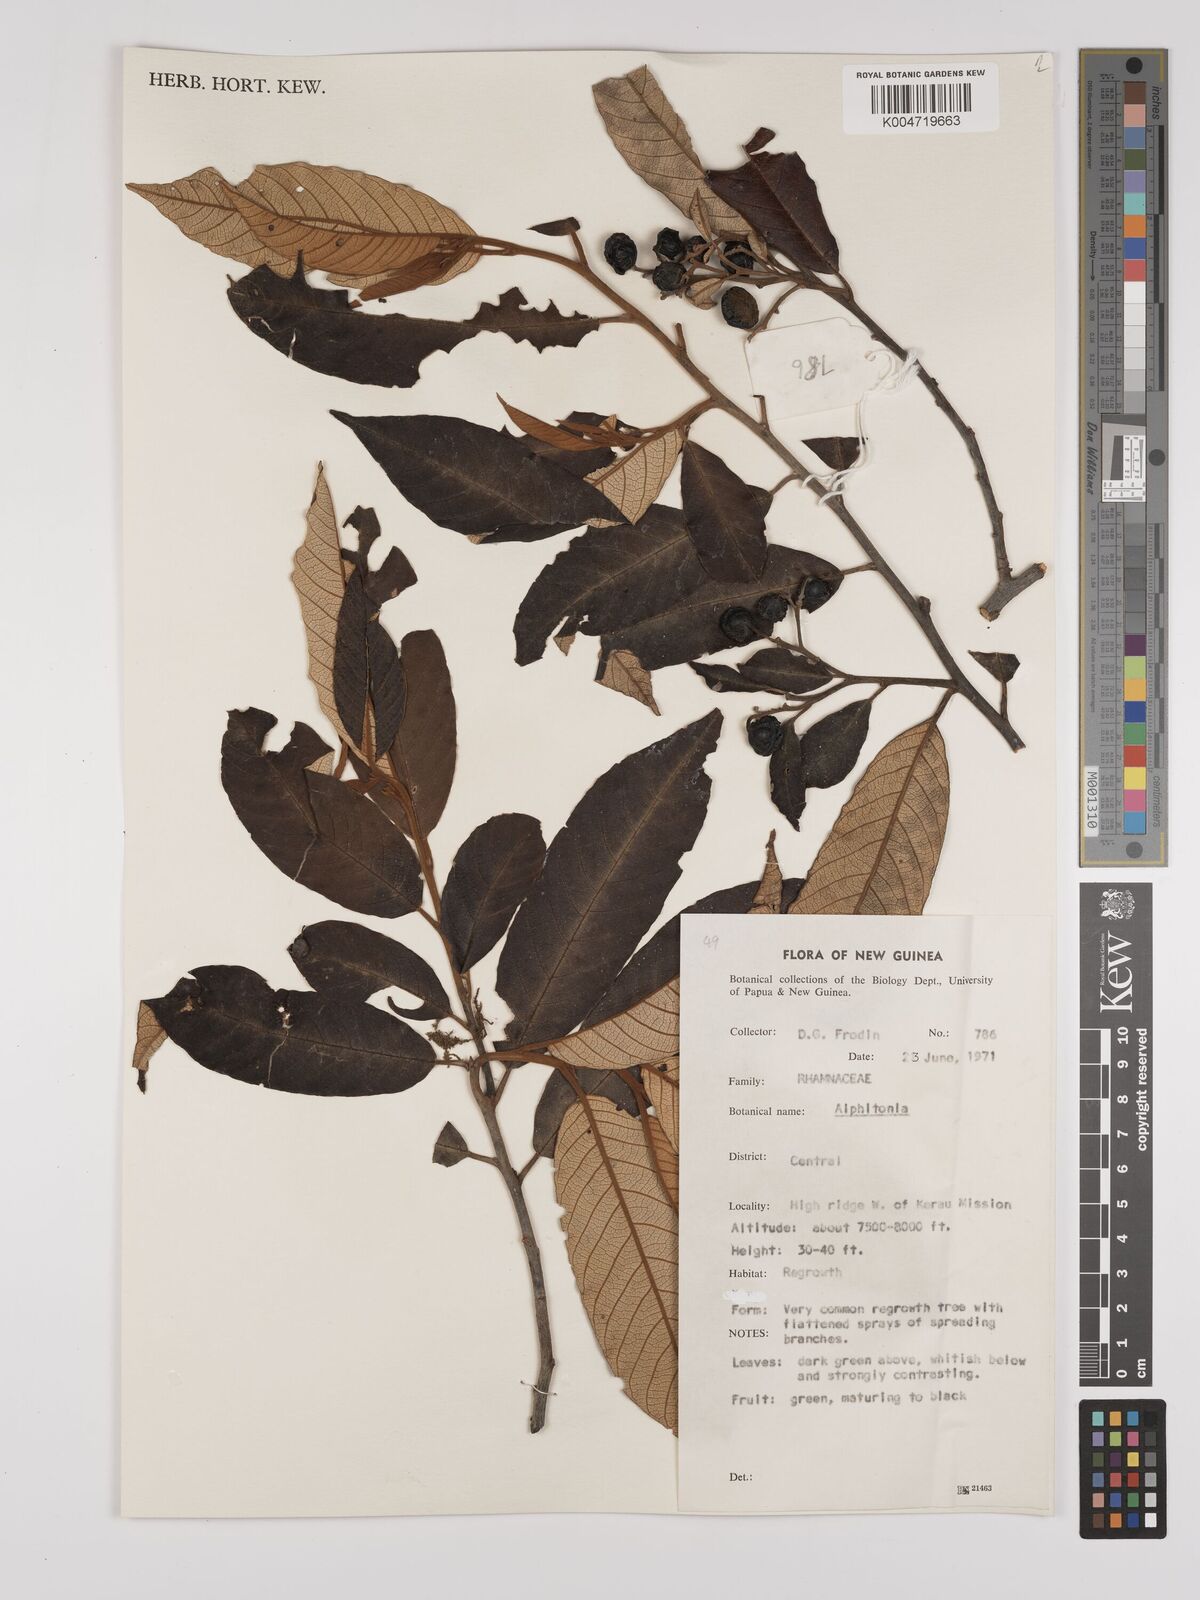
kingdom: Plantae
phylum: Tracheophyta
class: Magnoliopsida
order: Rosales
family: Rhamnaceae
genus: Alphitonia
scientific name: Alphitonia
